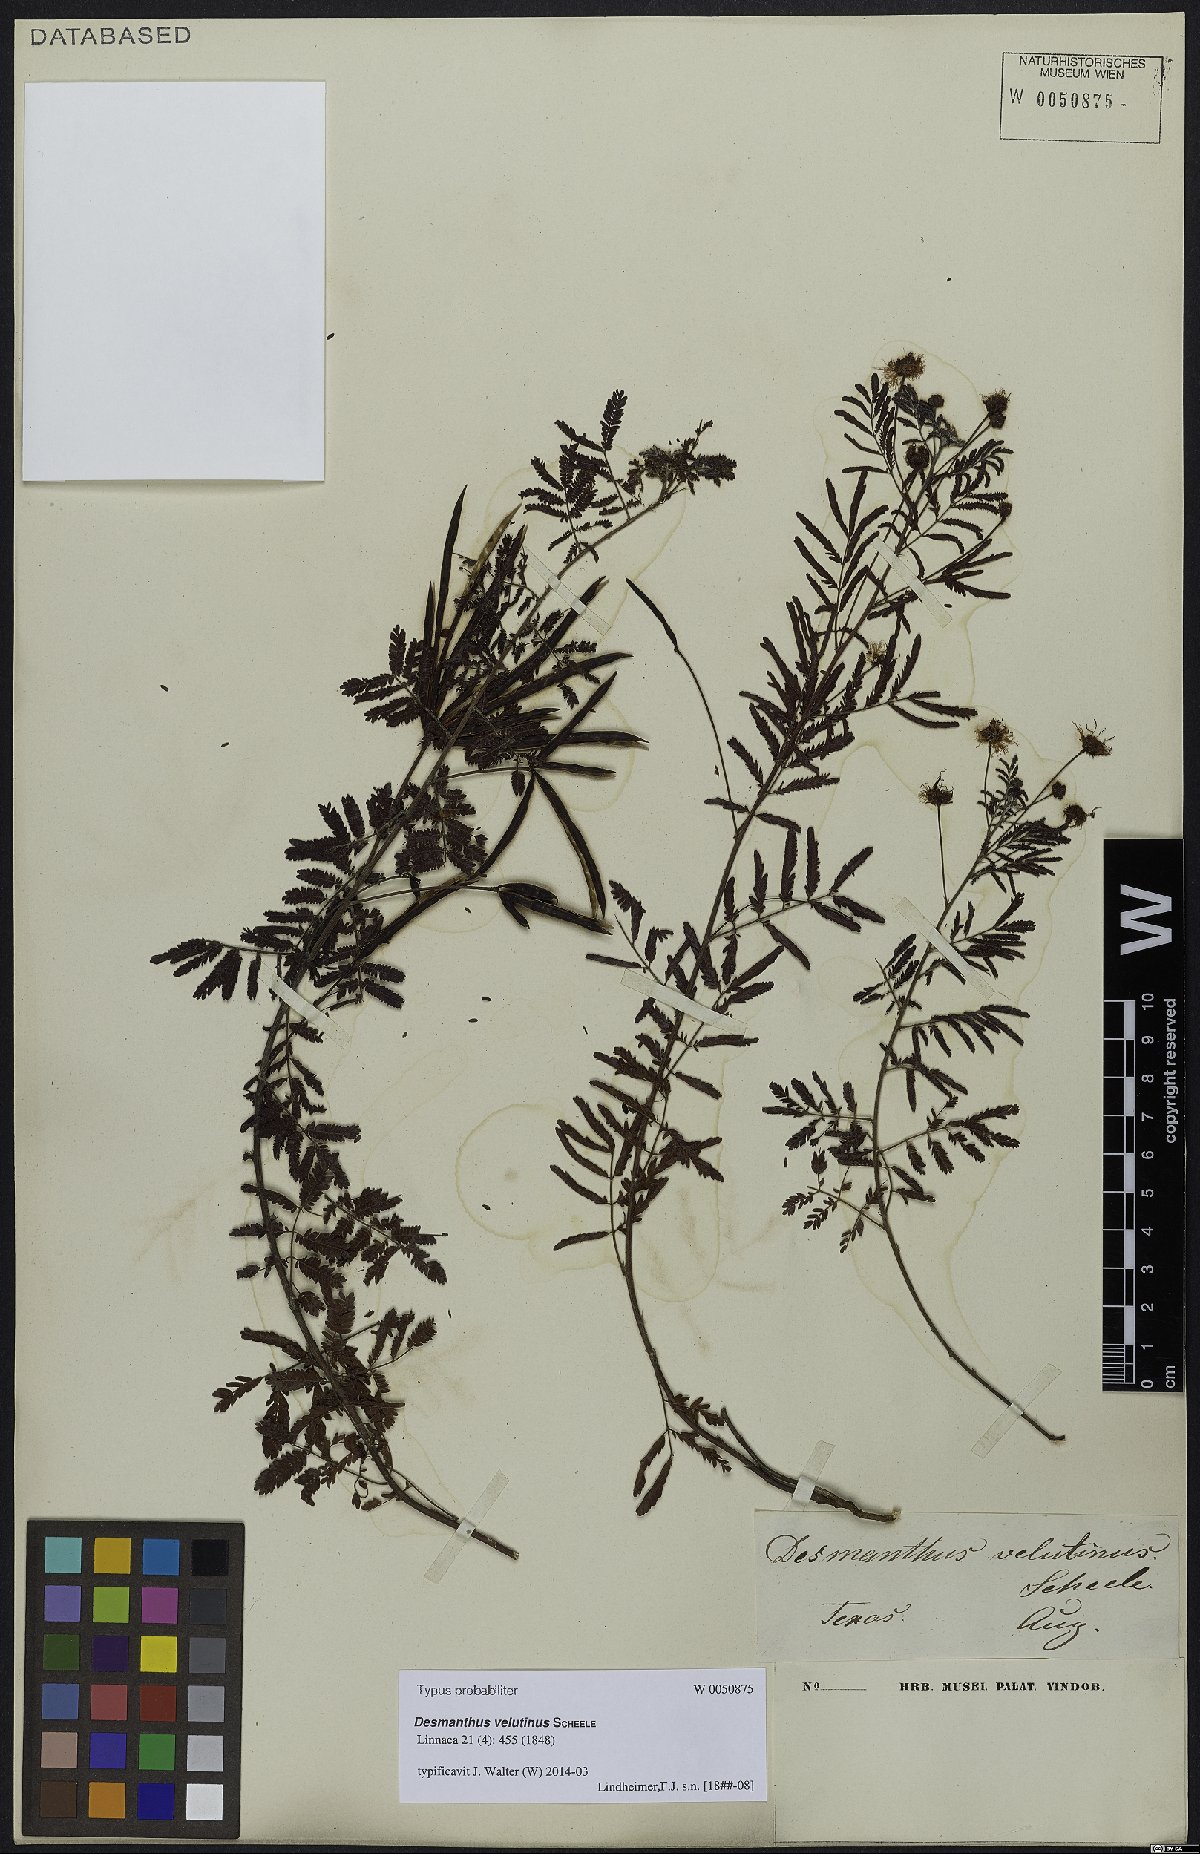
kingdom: Plantae
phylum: Tracheophyta
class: Magnoliopsida
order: Fabales
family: Fabaceae
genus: Desmanthus
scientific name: Desmanthus velutinus
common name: Velvet bundle-flower
